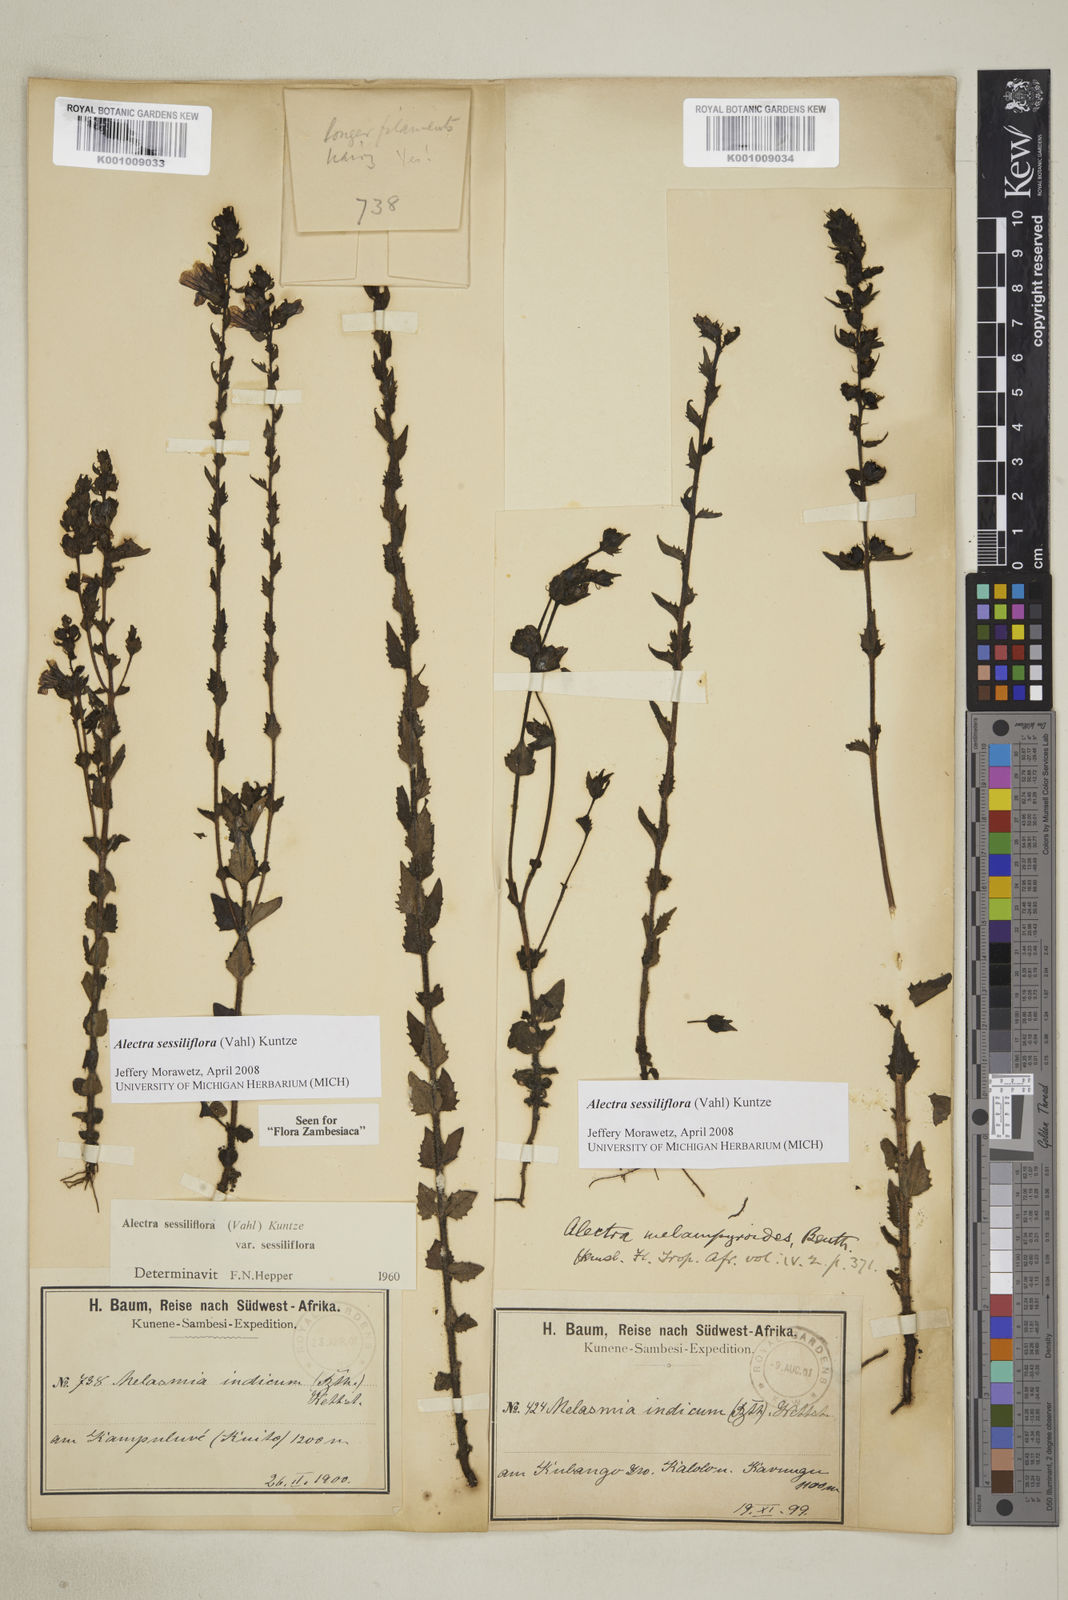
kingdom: Plantae
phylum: Tracheophyta
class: Magnoliopsida
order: Lamiales
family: Orobanchaceae
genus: Alectra
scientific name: Alectra sessiliflora
